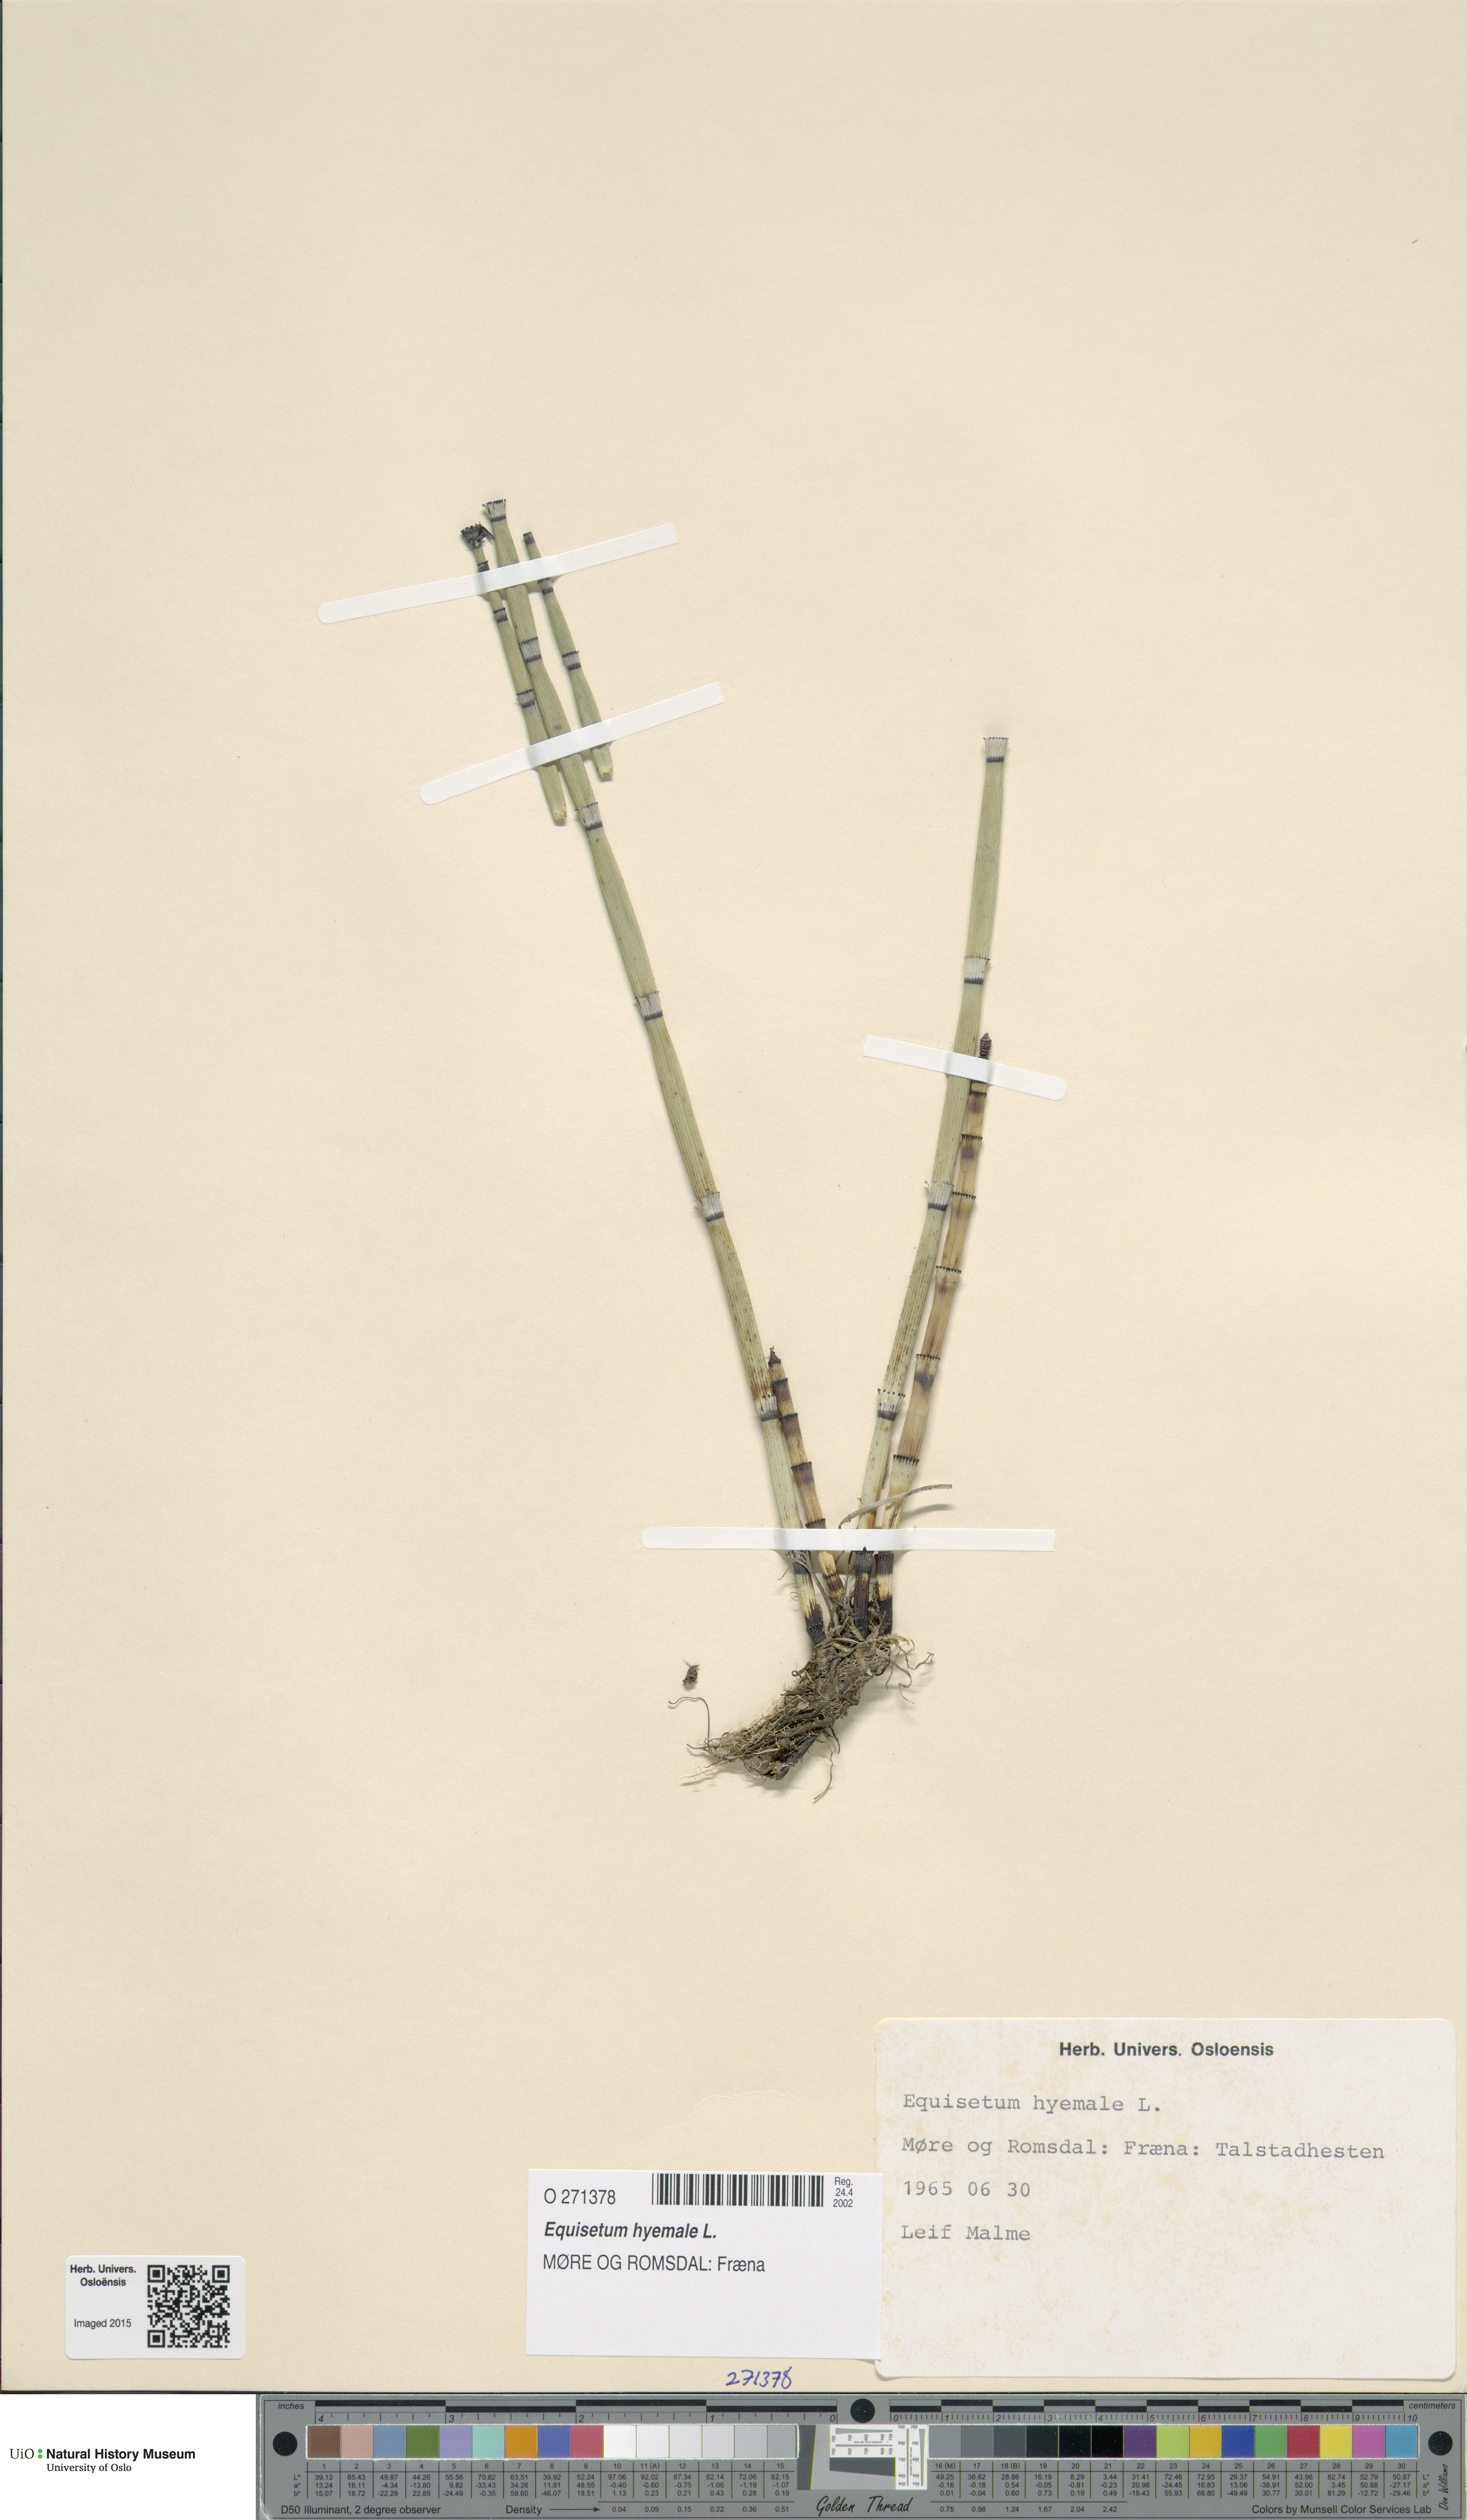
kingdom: Plantae
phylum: Tracheophyta
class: Polypodiopsida
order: Equisetales
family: Equisetaceae
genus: Equisetum
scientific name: Equisetum hyemale
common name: Rough horsetail
